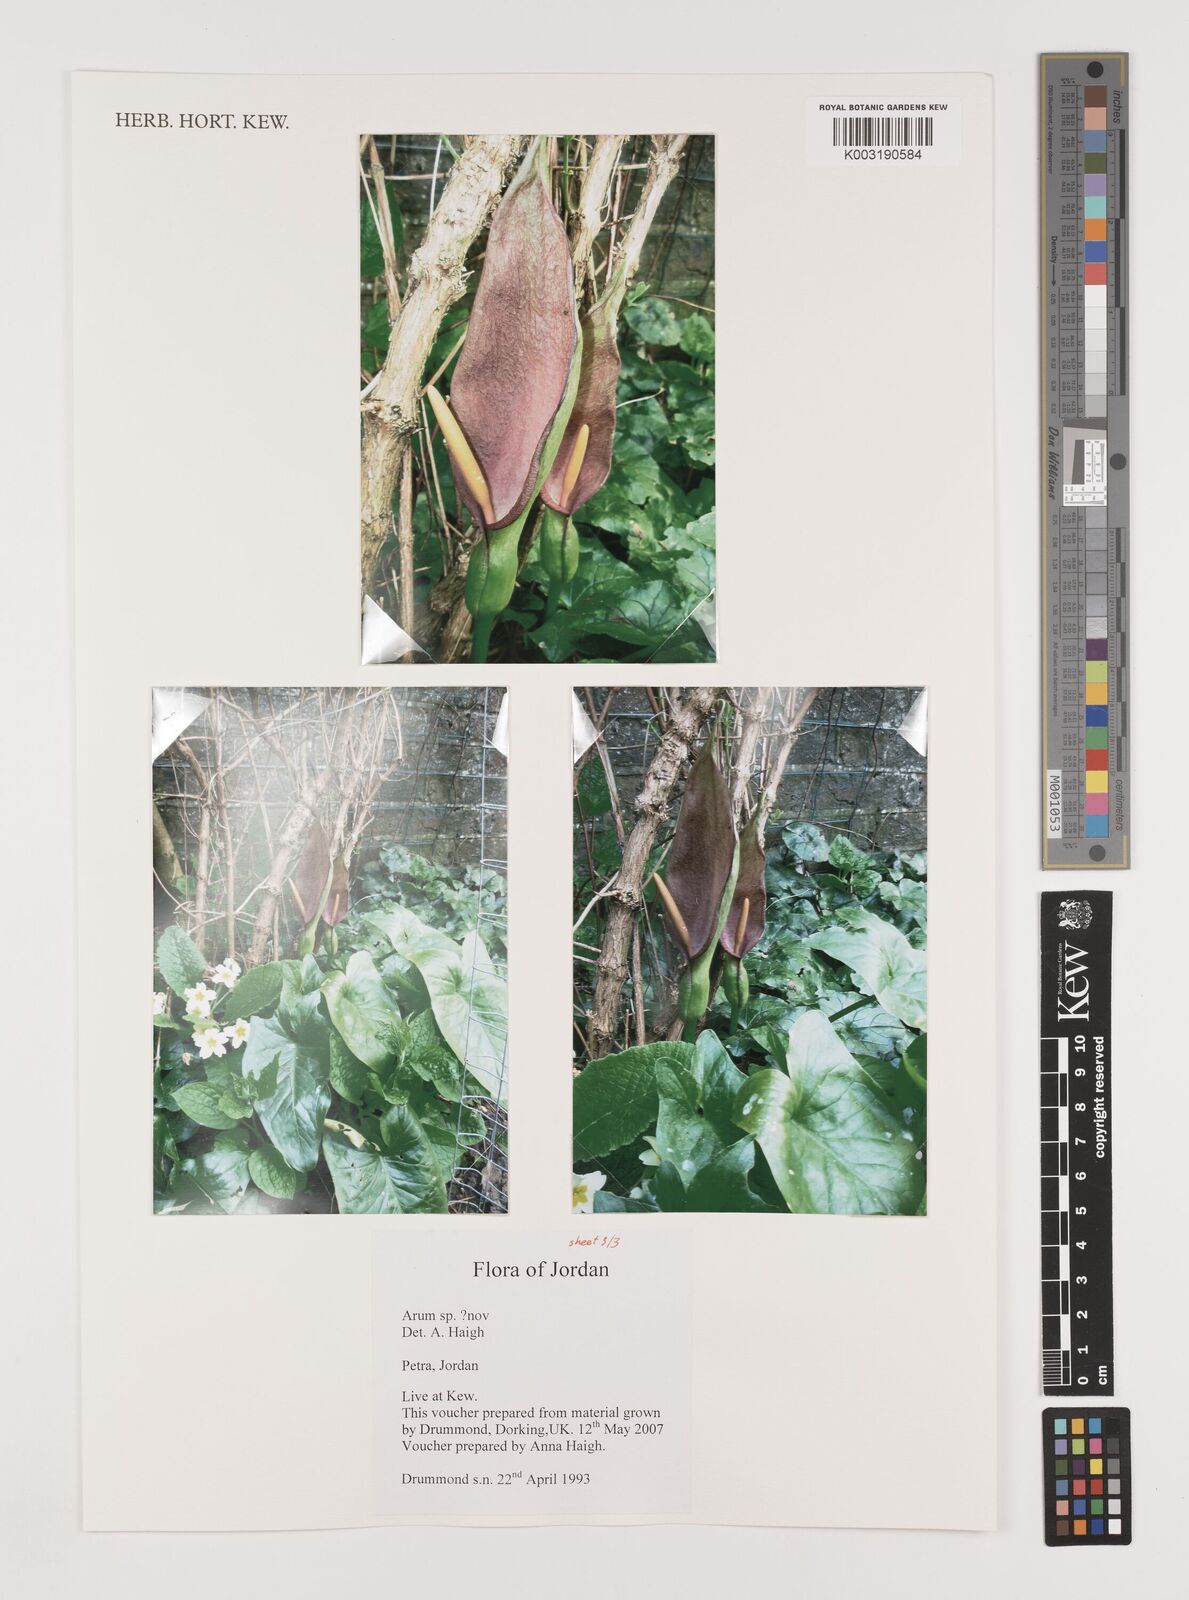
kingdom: Plantae
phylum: Tracheophyta
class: Liliopsida
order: Alismatales
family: Araceae
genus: Arum
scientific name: Arum
